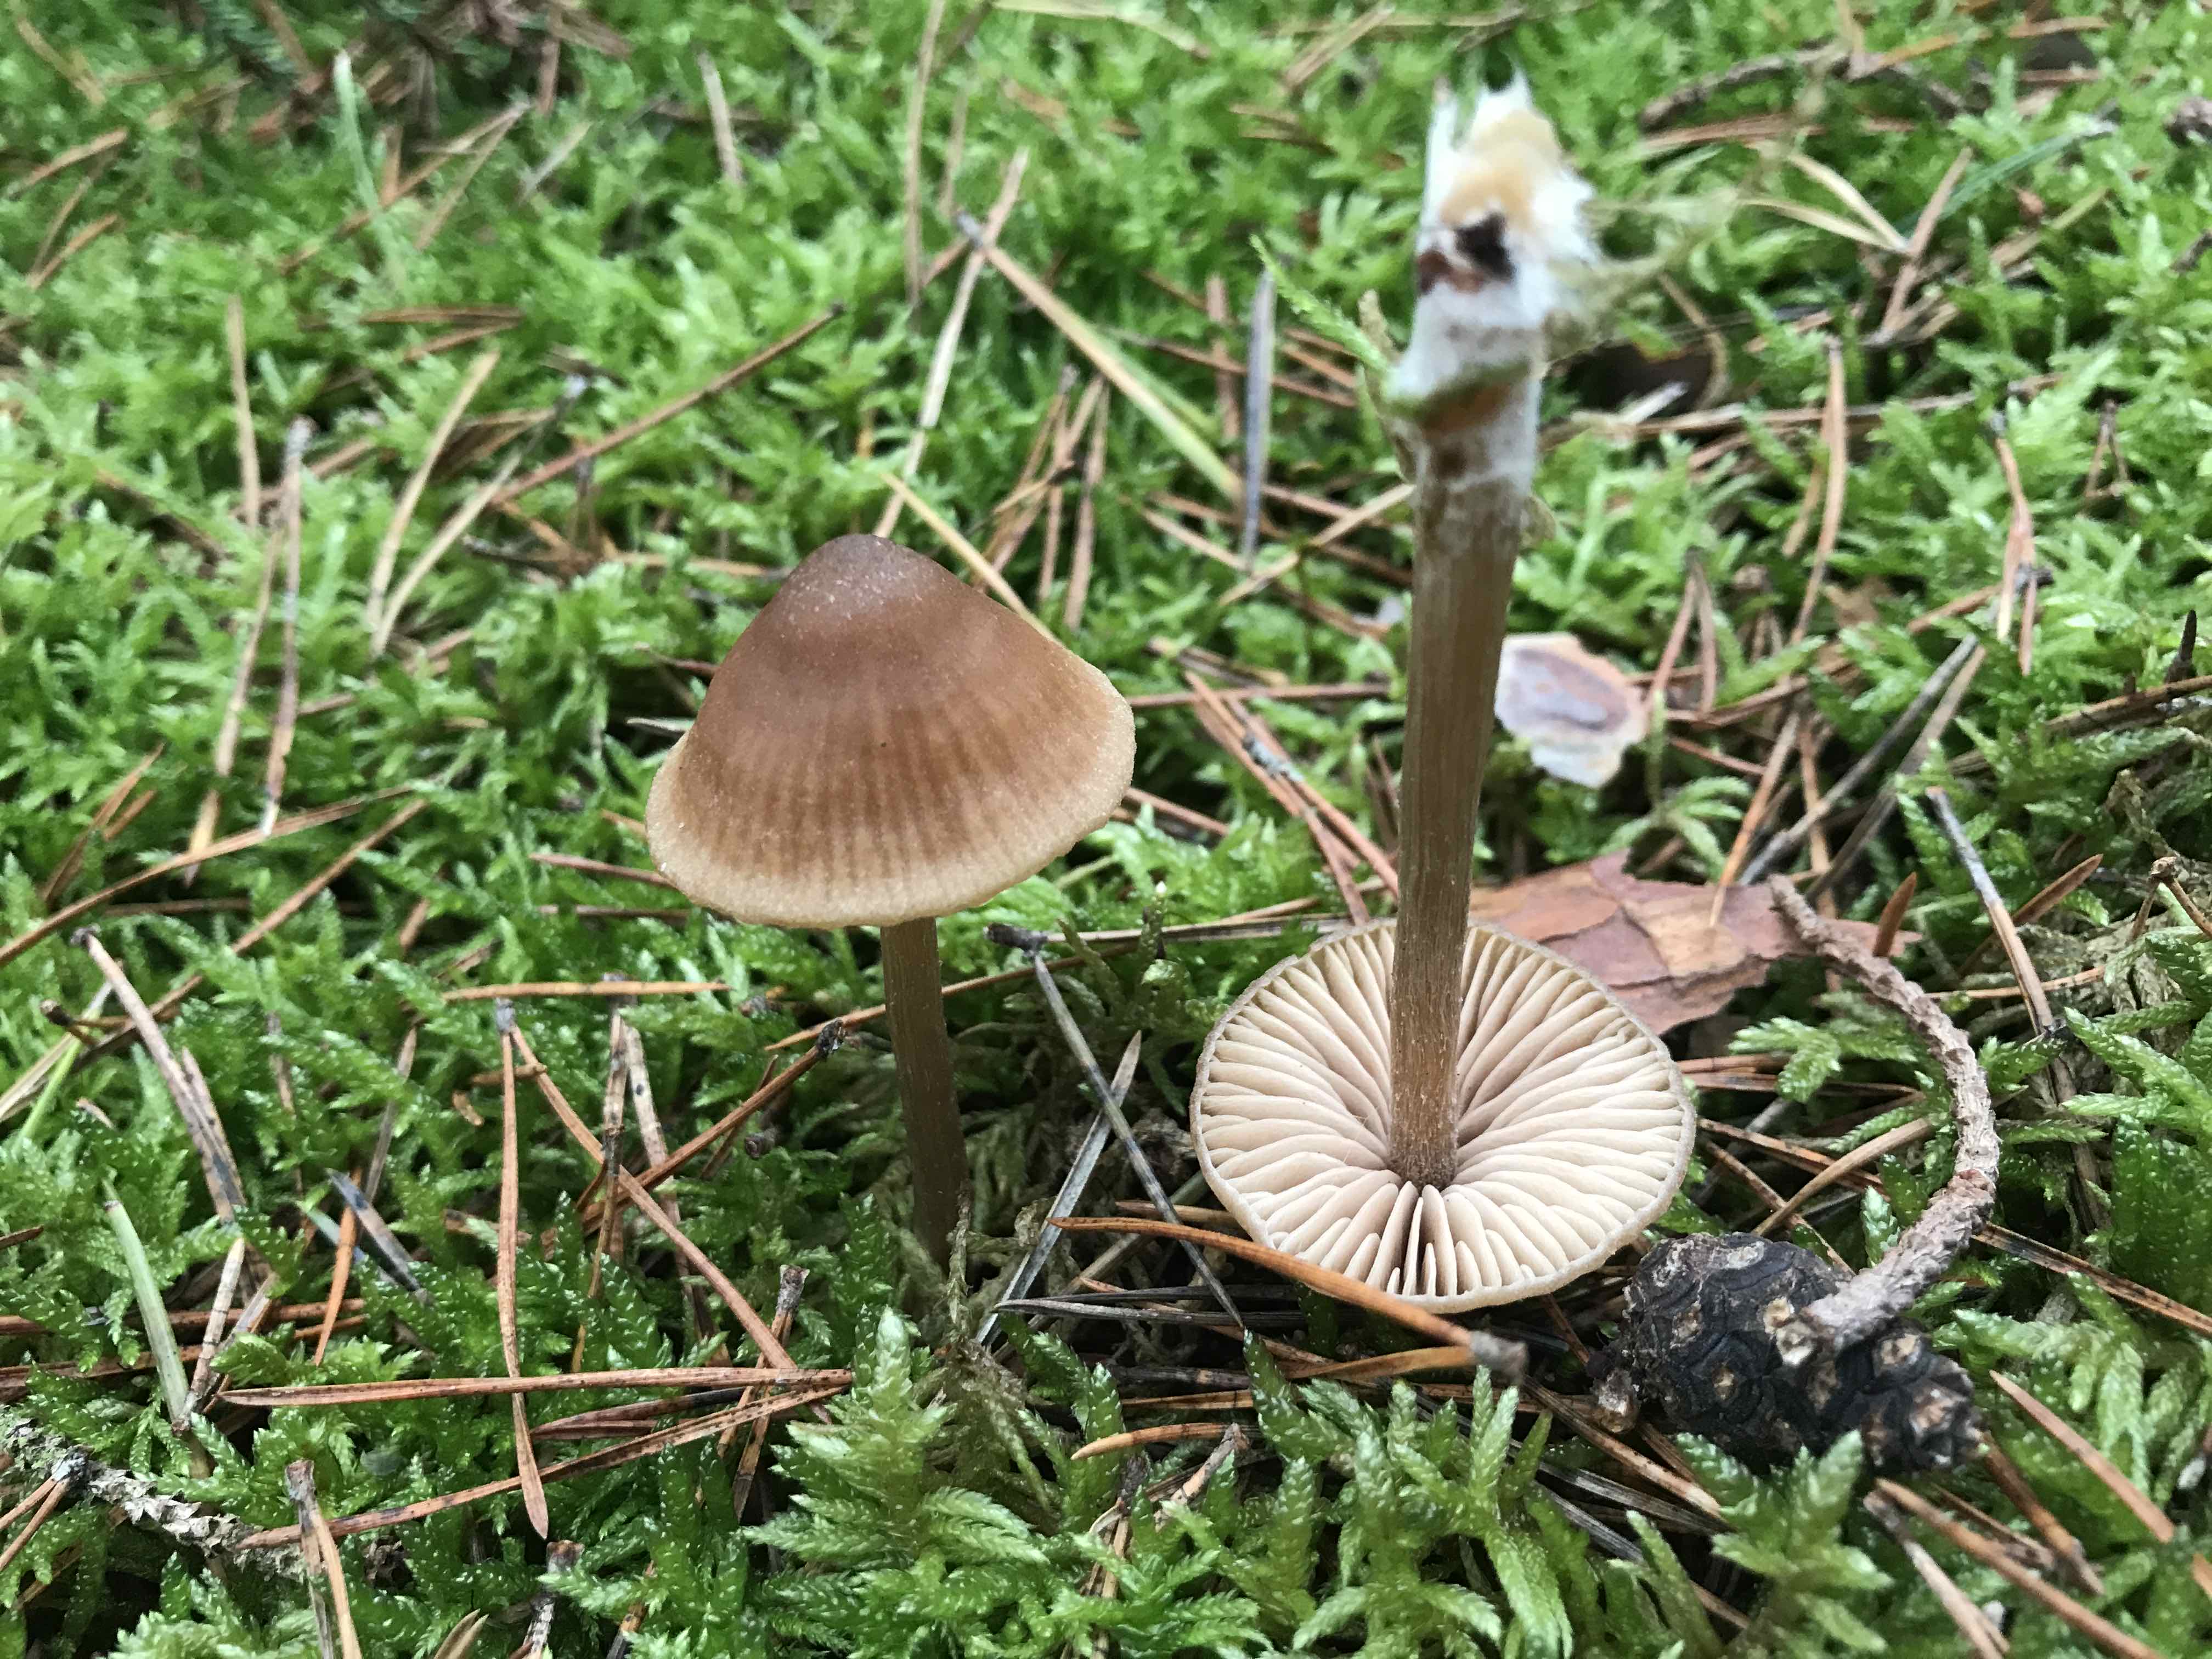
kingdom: Fungi
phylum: Basidiomycota
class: Agaricomycetes
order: Agaricales
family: Entolomataceae
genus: Entoloma
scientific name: Entoloma cetratum
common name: voks-rødblad
